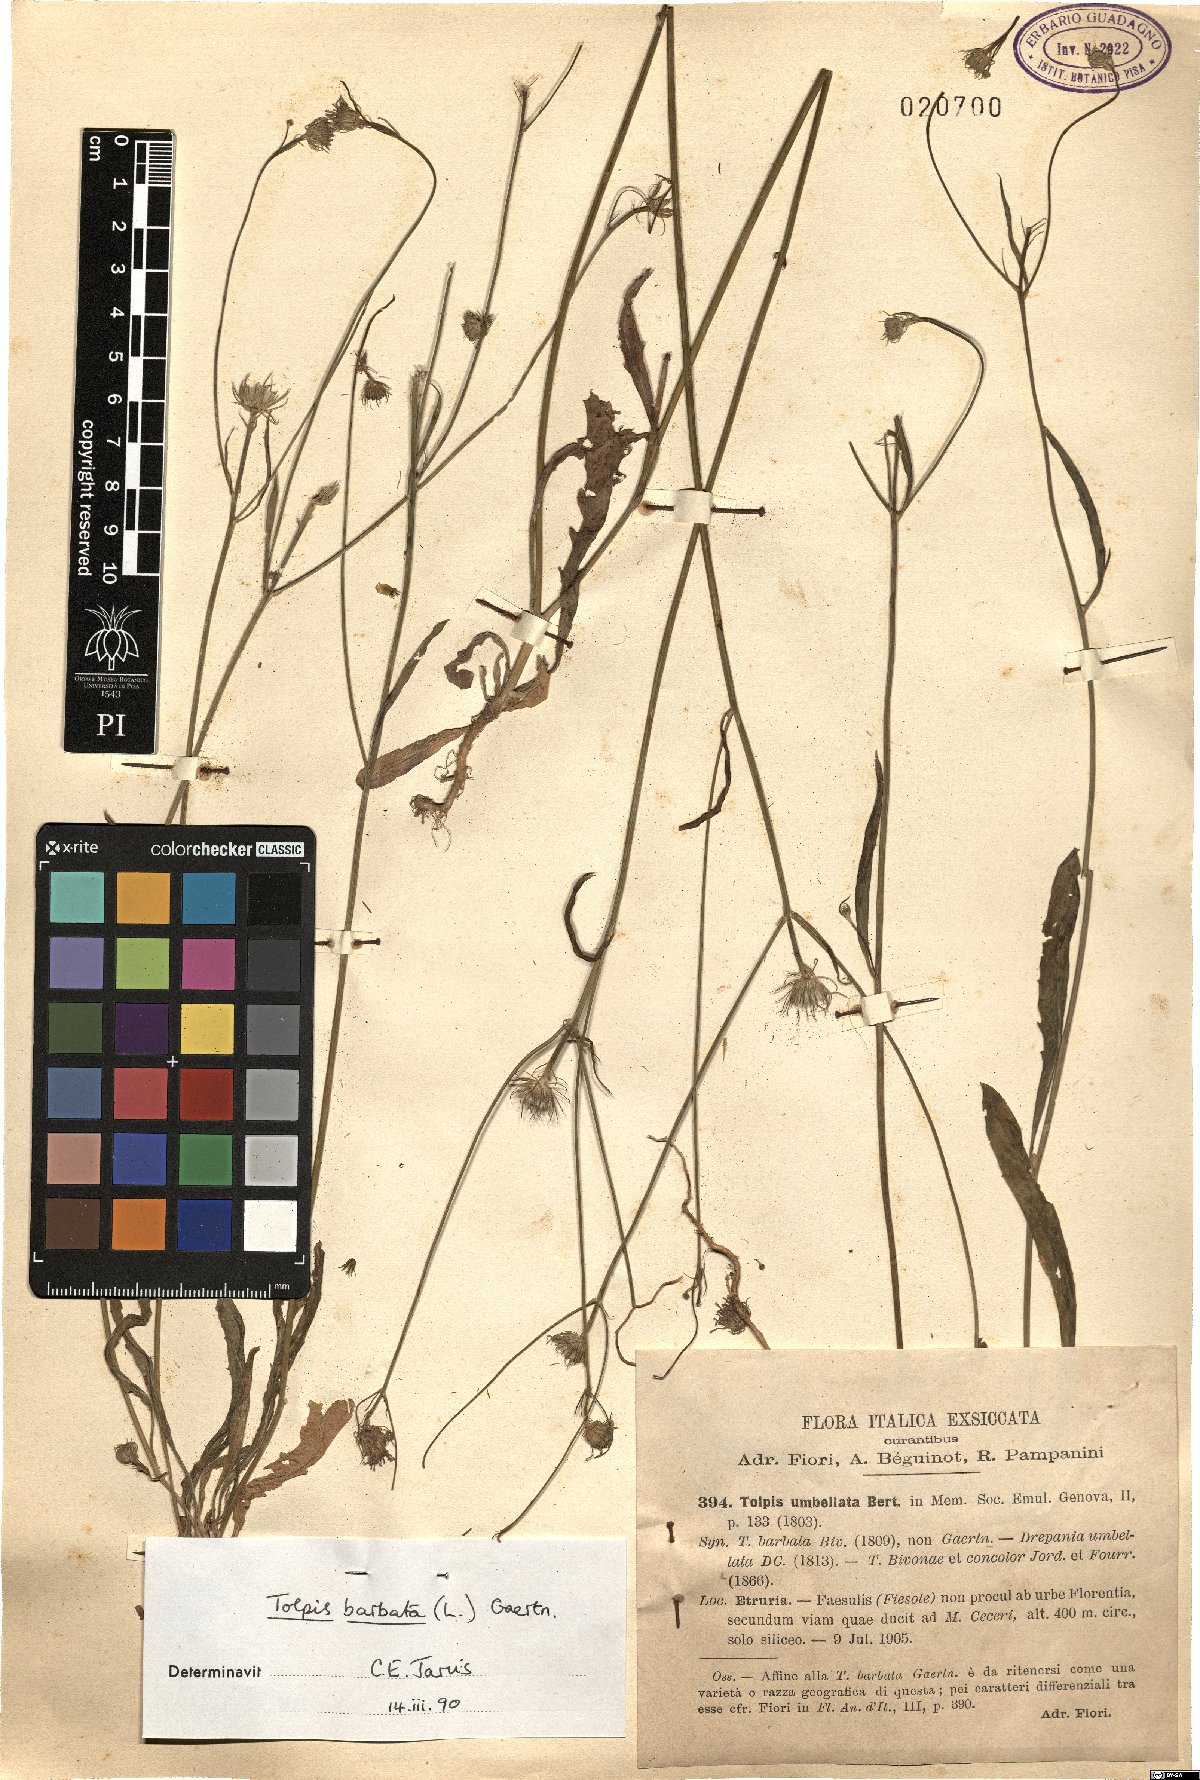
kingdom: Plantae
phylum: Tracheophyta
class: Magnoliopsida
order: Asterales
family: Asteraceae
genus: Tolpis
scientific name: Tolpis barbata
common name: Yellow hawkweed
